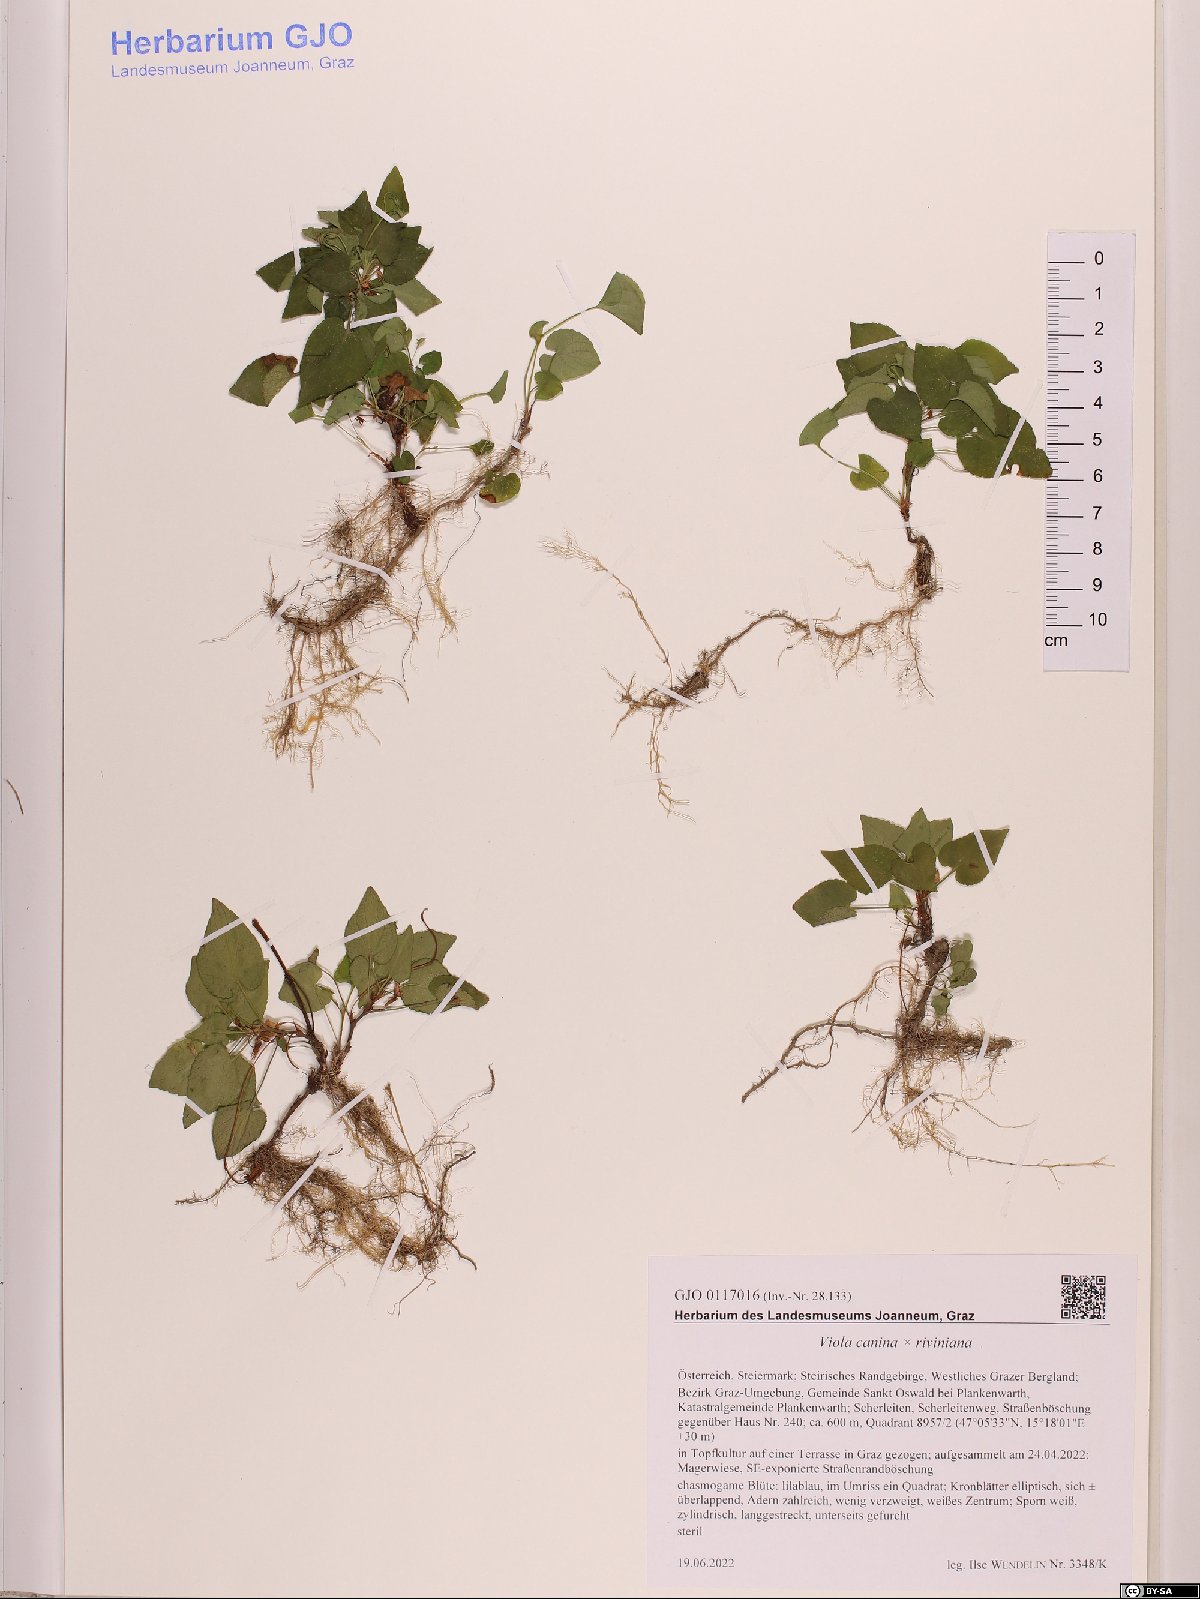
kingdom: Plantae
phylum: Tracheophyta
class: Magnoliopsida
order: Malpighiales
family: Violaceae
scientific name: Violaceae
